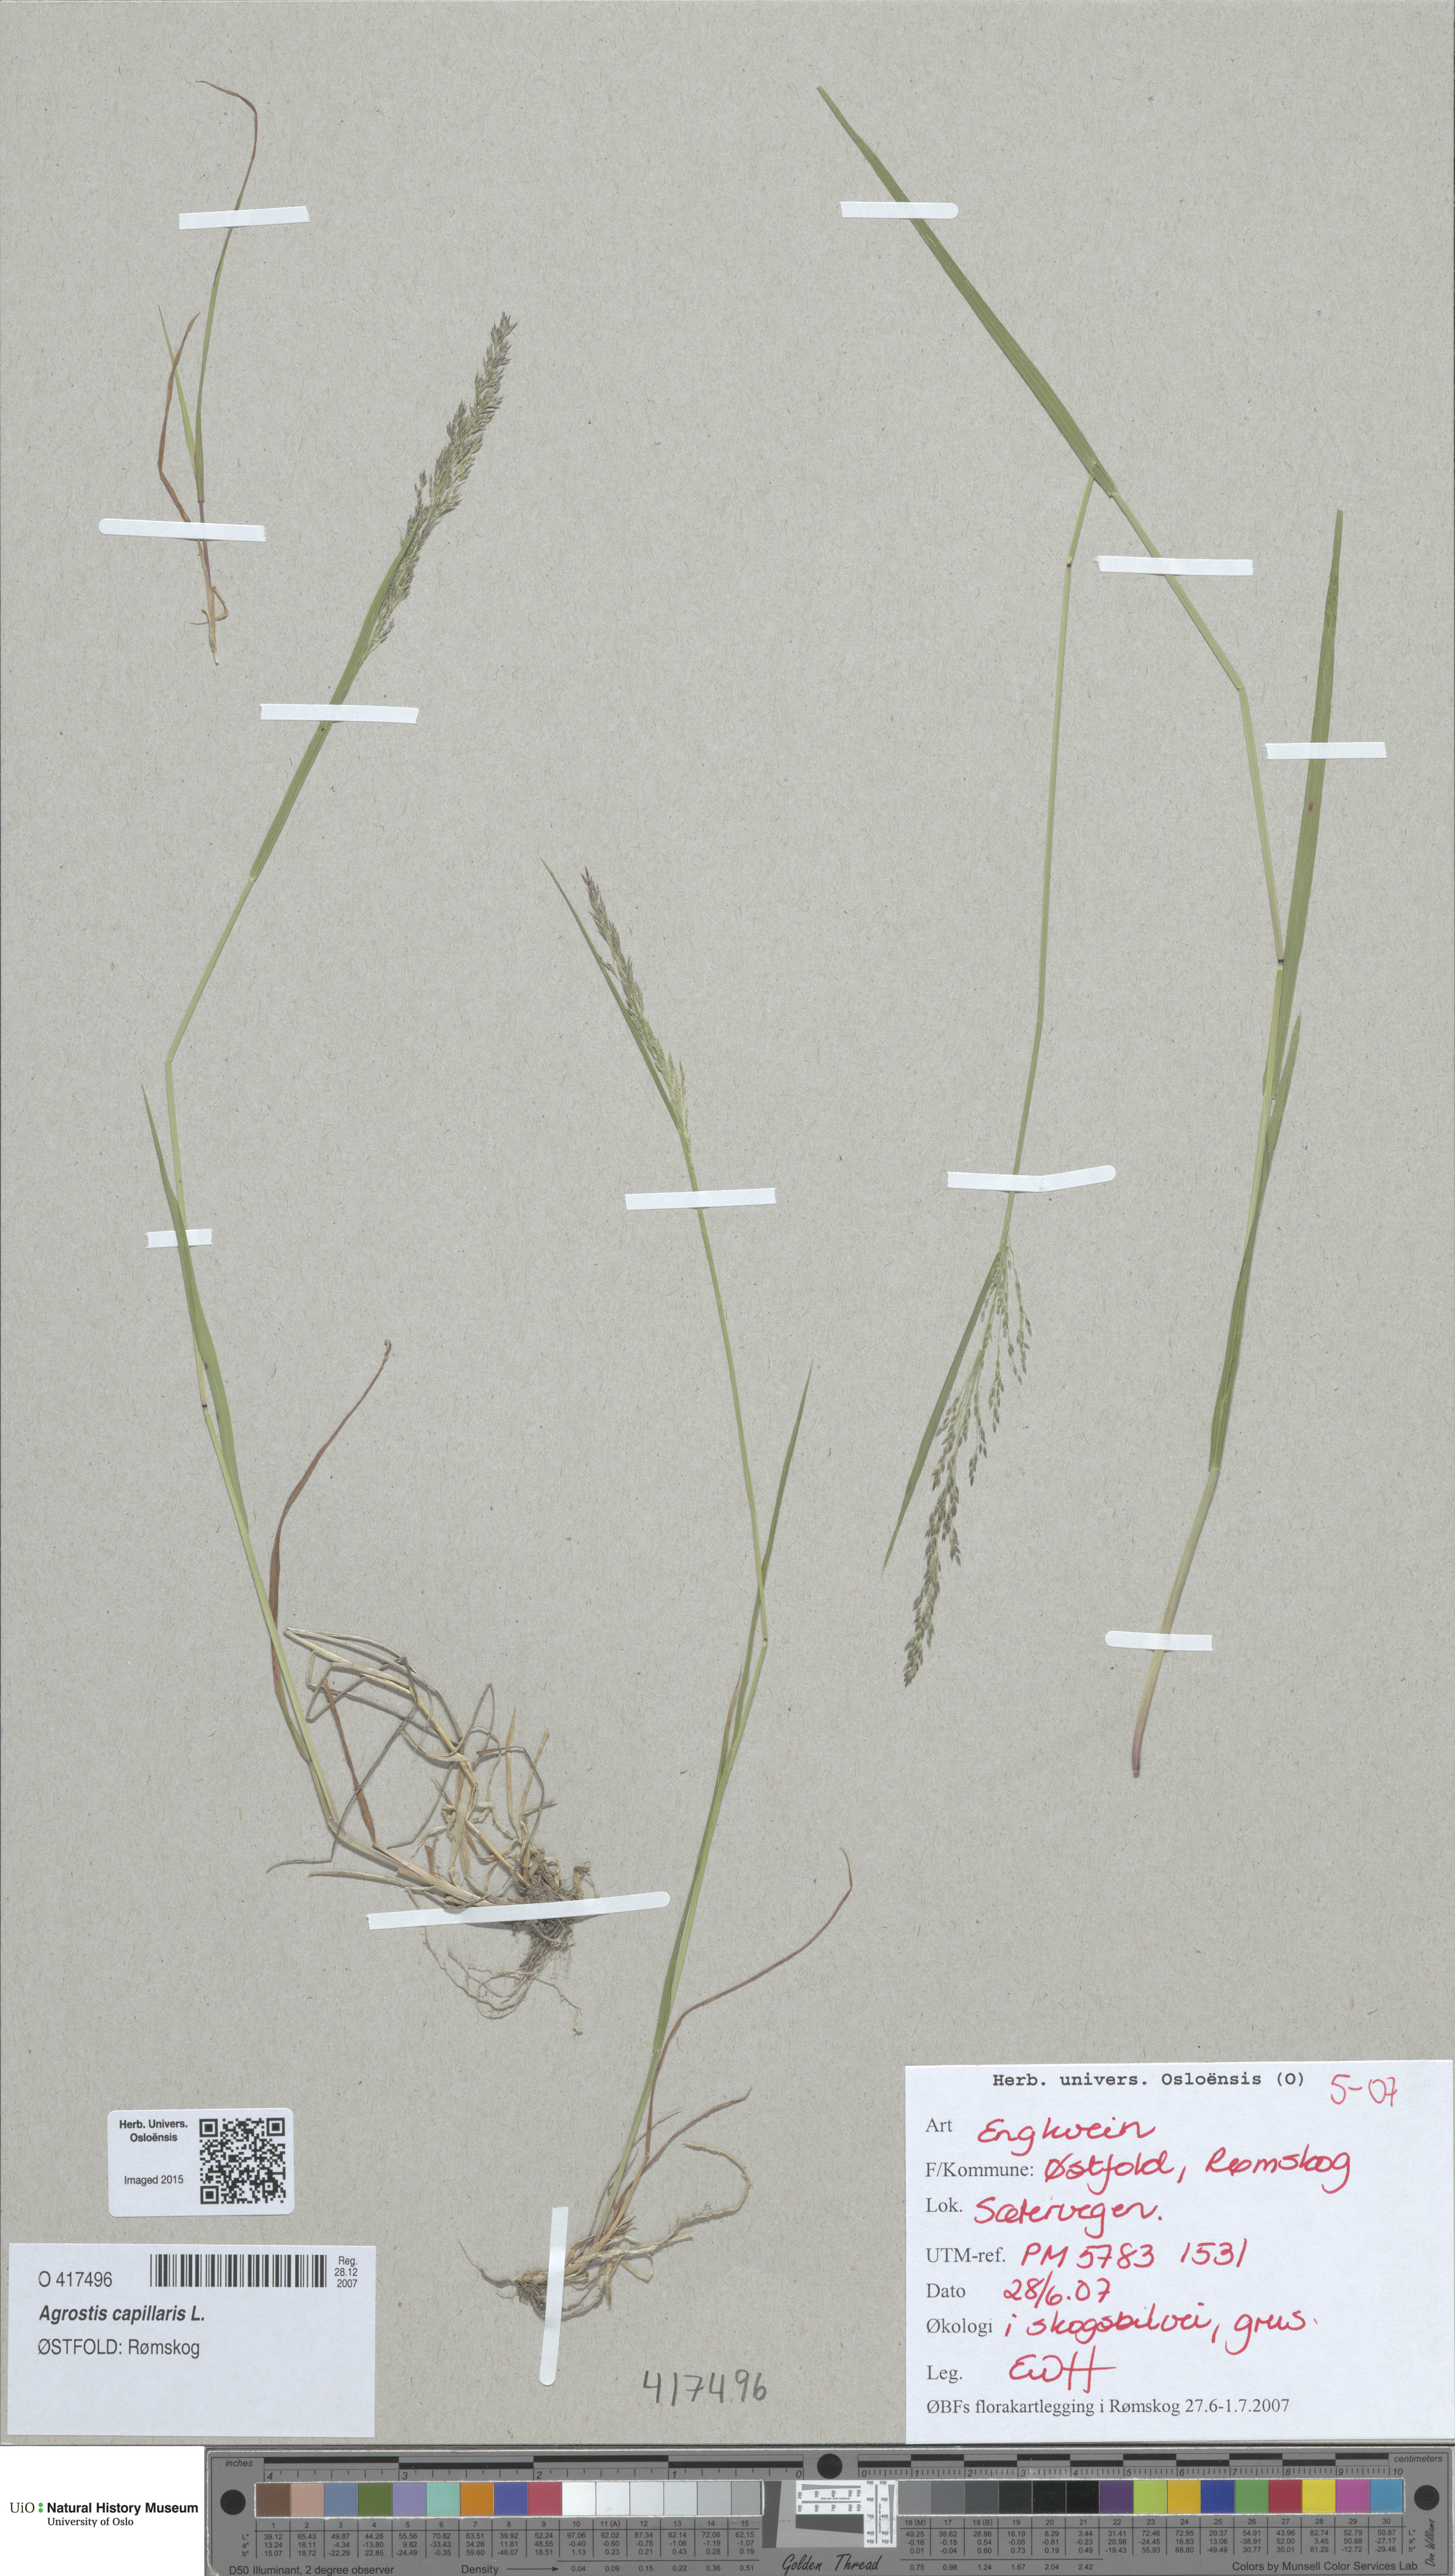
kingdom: Plantae
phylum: Tracheophyta
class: Liliopsida
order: Poales
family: Poaceae
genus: Agrostis
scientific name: Agrostis capillaris
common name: Colonial bentgrass
